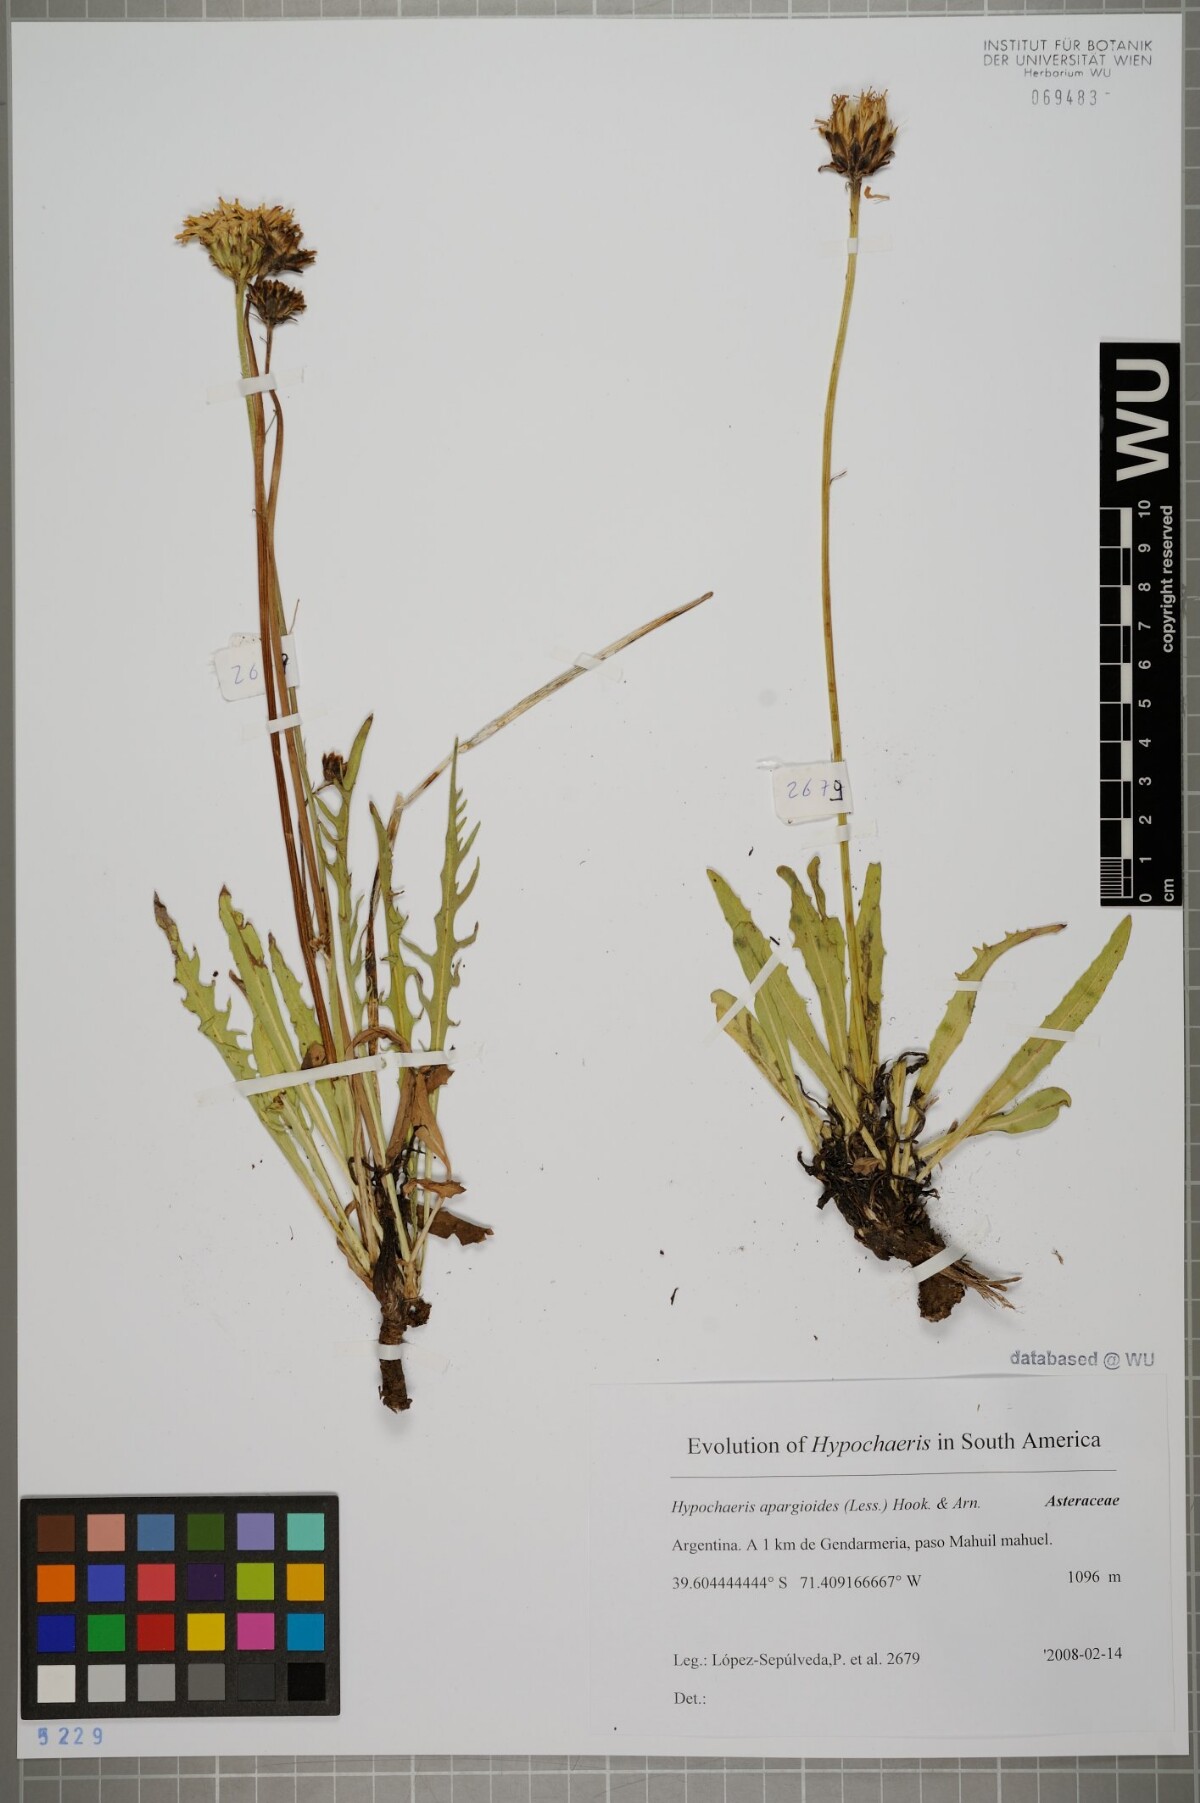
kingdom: Plantae
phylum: Tracheophyta
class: Magnoliopsida
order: Asterales
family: Asteraceae
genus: Hypochaeris
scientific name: Hypochaeris apargioides
